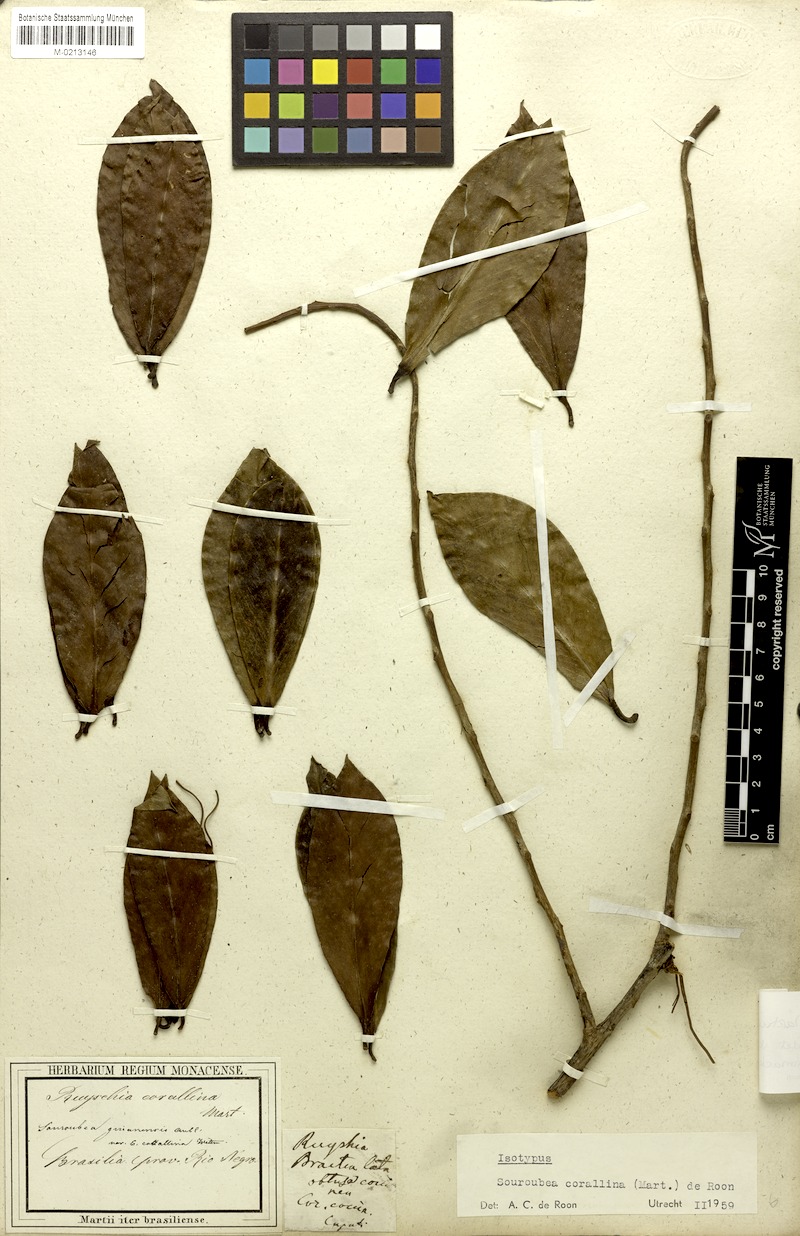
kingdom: Plantae
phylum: Tracheophyta
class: Magnoliopsida
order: Ericales
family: Marcgraviaceae
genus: Souroubea
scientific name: Souroubea corallina
